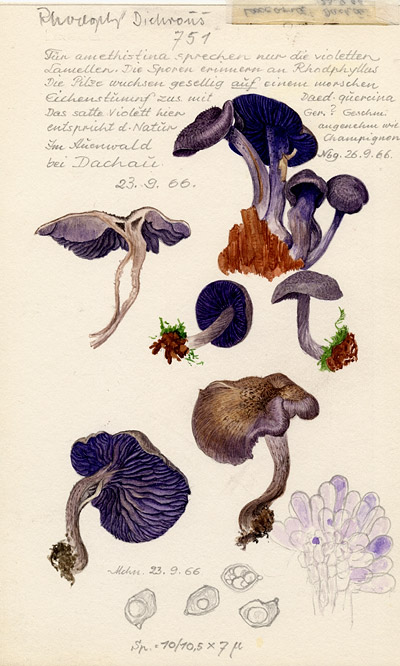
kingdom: Fungi
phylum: Basidiomycota
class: Agaricomycetes
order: Agaricales
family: Entolomataceae
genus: Entoloma
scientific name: Entoloma dichroum
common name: Bicoloured pinkgill
